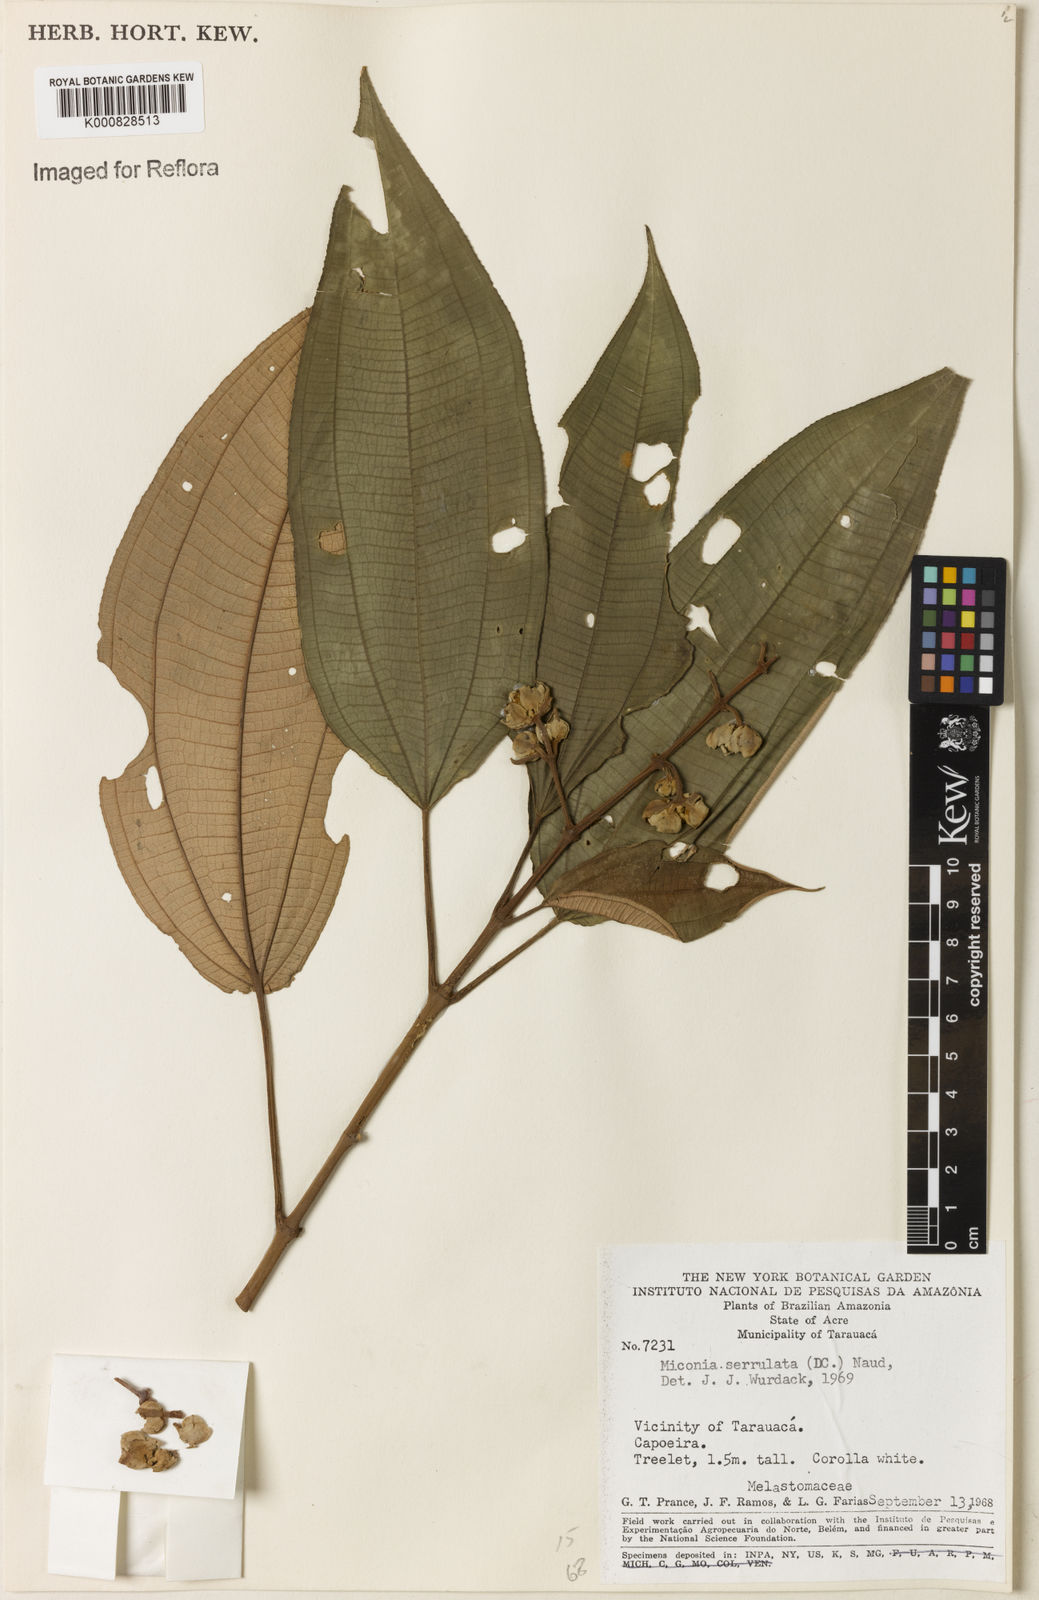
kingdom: Plantae
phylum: Tracheophyta
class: Magnoliopsida
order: Myrtales
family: Melastomataceae
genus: Miconia
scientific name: Miconia serrulata
